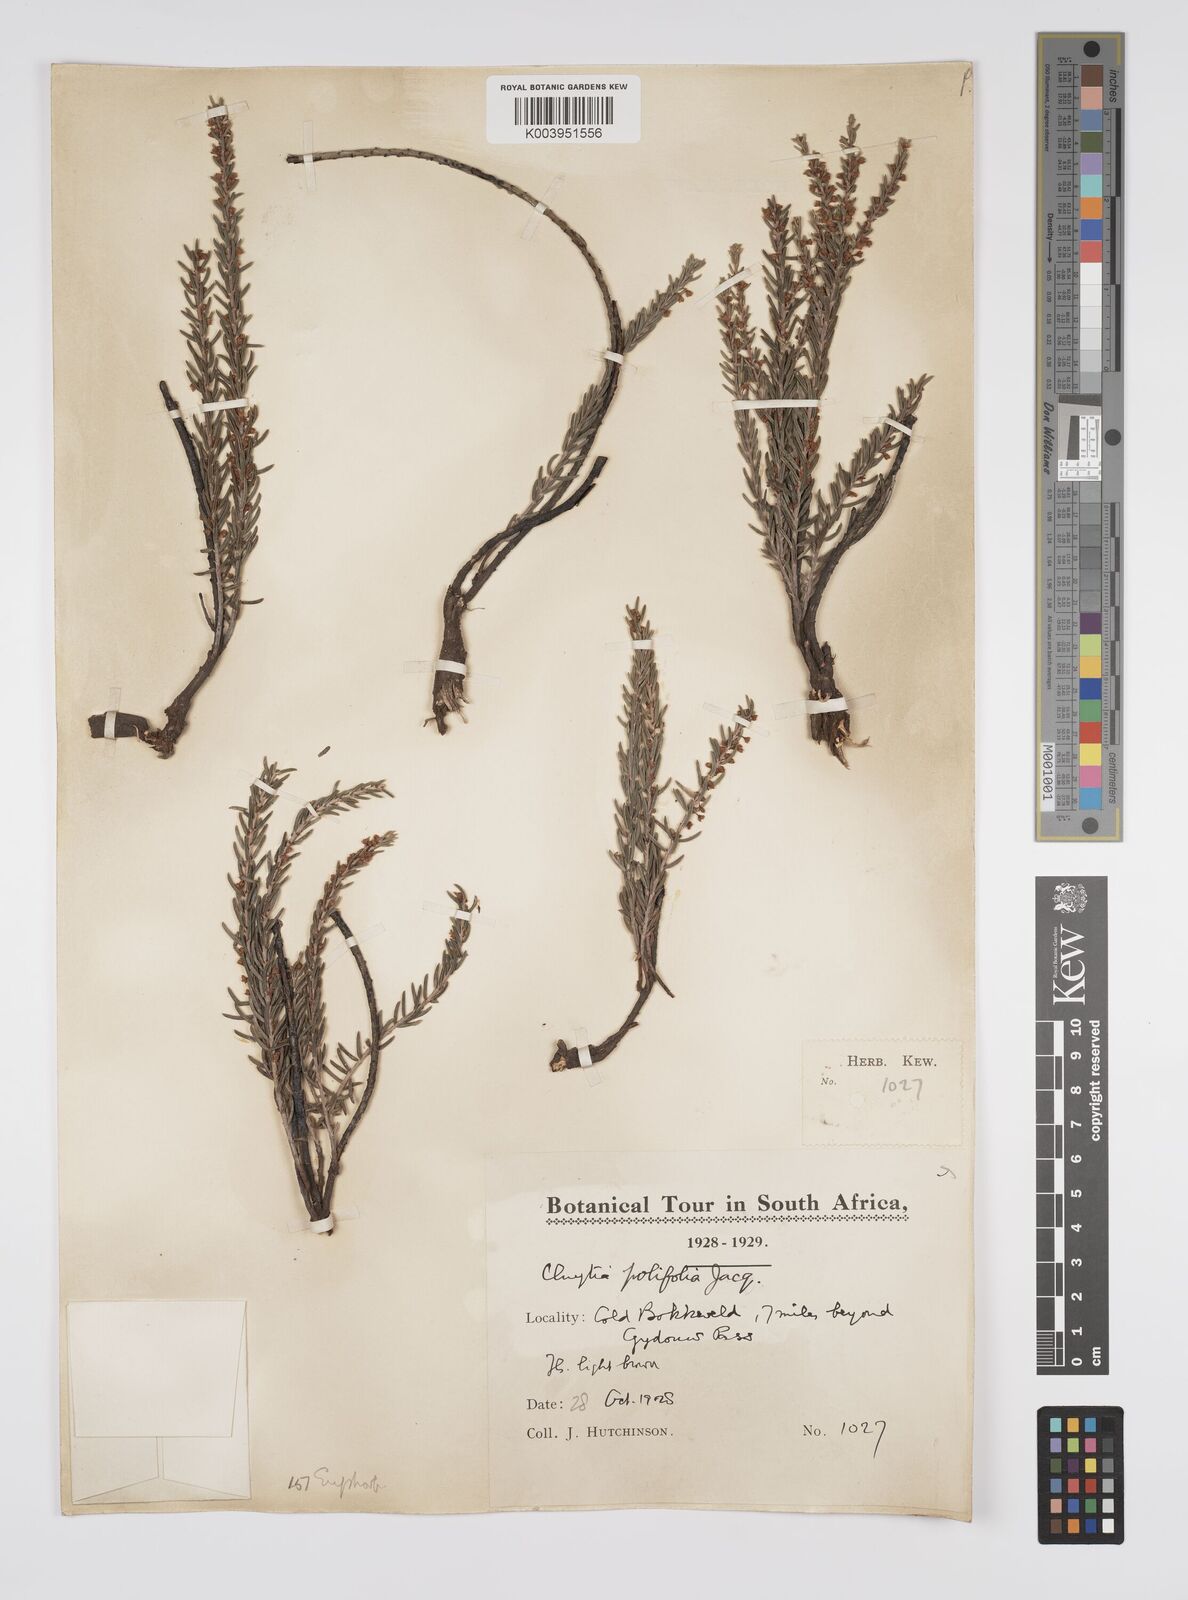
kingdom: Plantae
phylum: Tracheophyta
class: Magnoliopsida
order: Malpighiales
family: Peraceae
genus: Clutia
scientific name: Clutia
